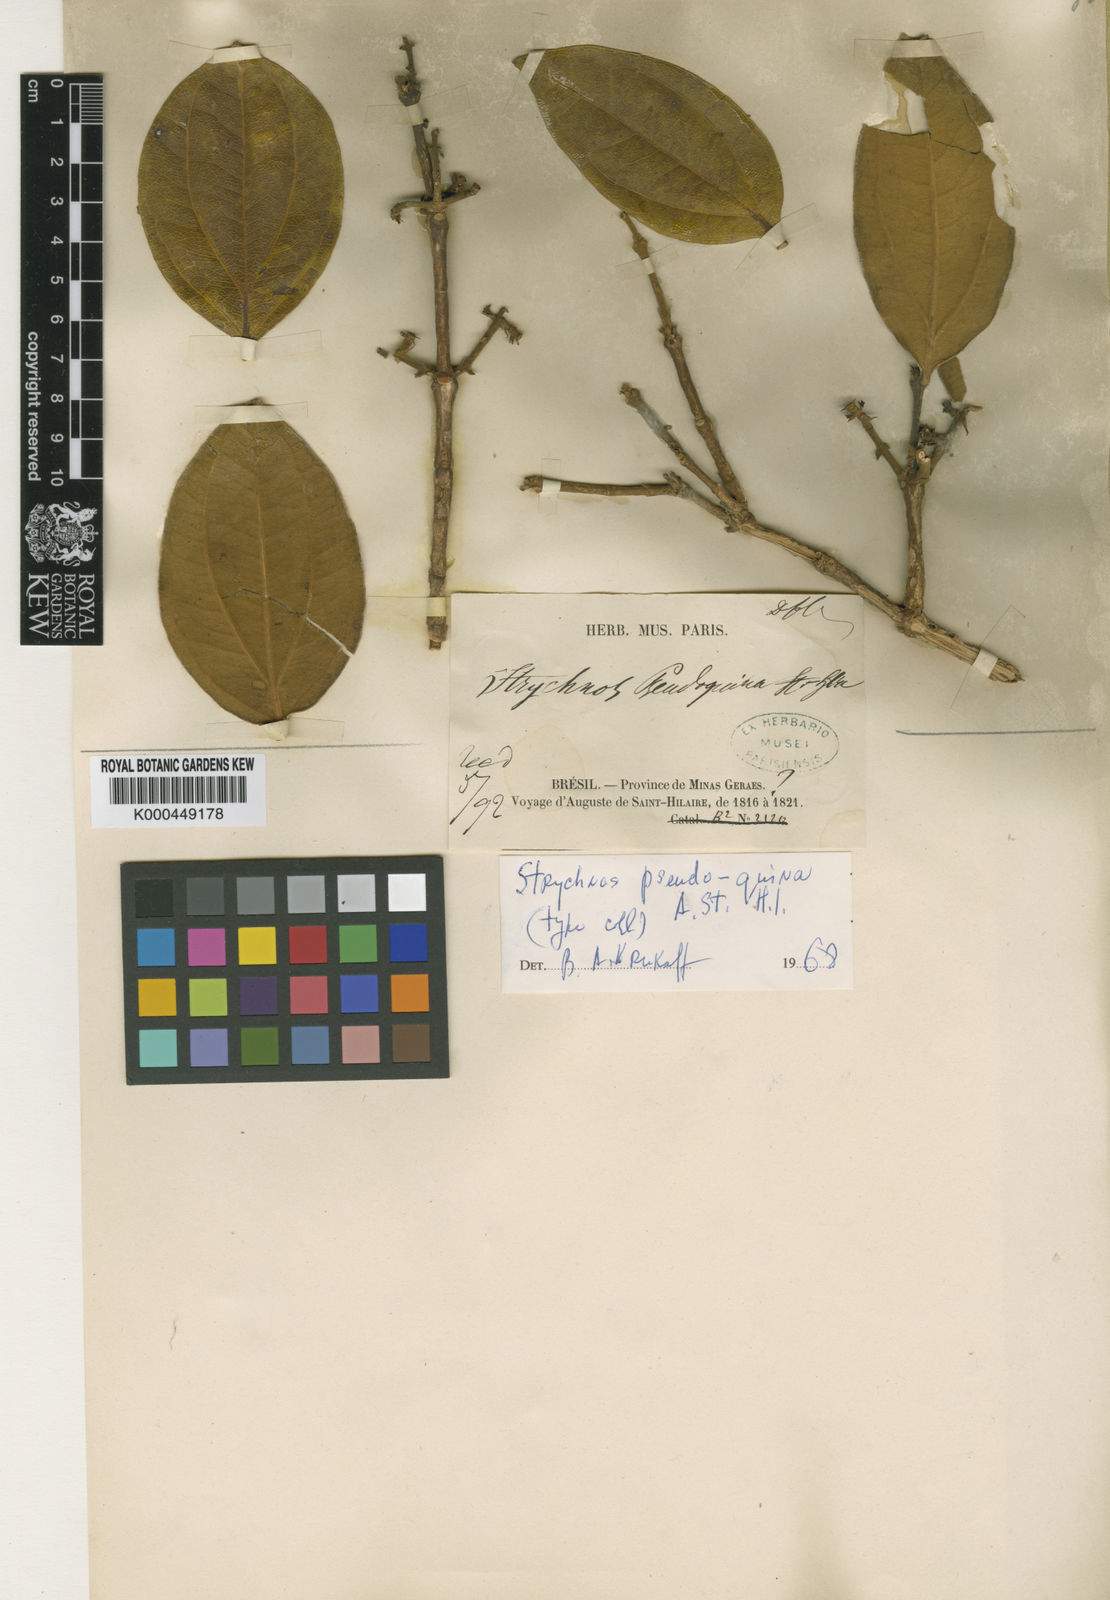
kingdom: Plantae
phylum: Tracheophyta
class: Magnoliopsida
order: Gentianales
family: Loganiaceae
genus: Strychnos
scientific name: Strychnos pseudoquina
